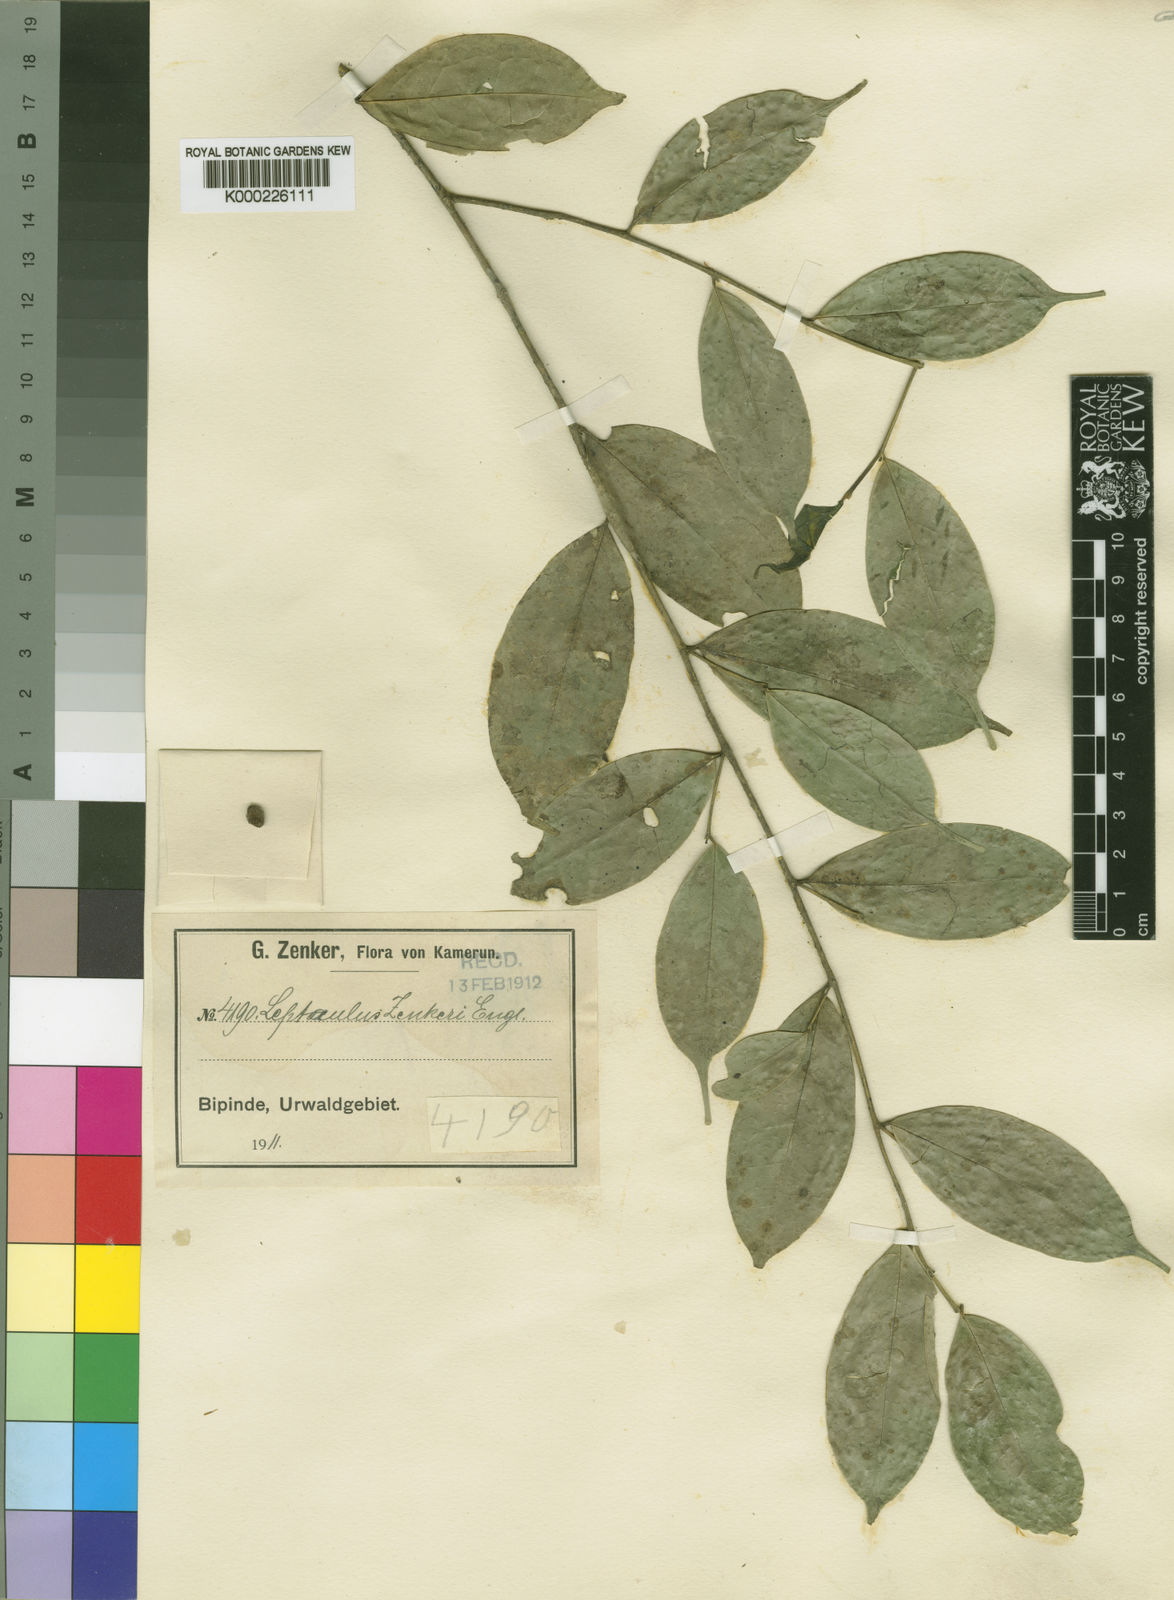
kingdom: Plantae
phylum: Tracheophyta
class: Magnoliopsida
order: Cardiopteridales
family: Cardiopteridaceae
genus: Leptaulus
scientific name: Leptaulus congolanus
